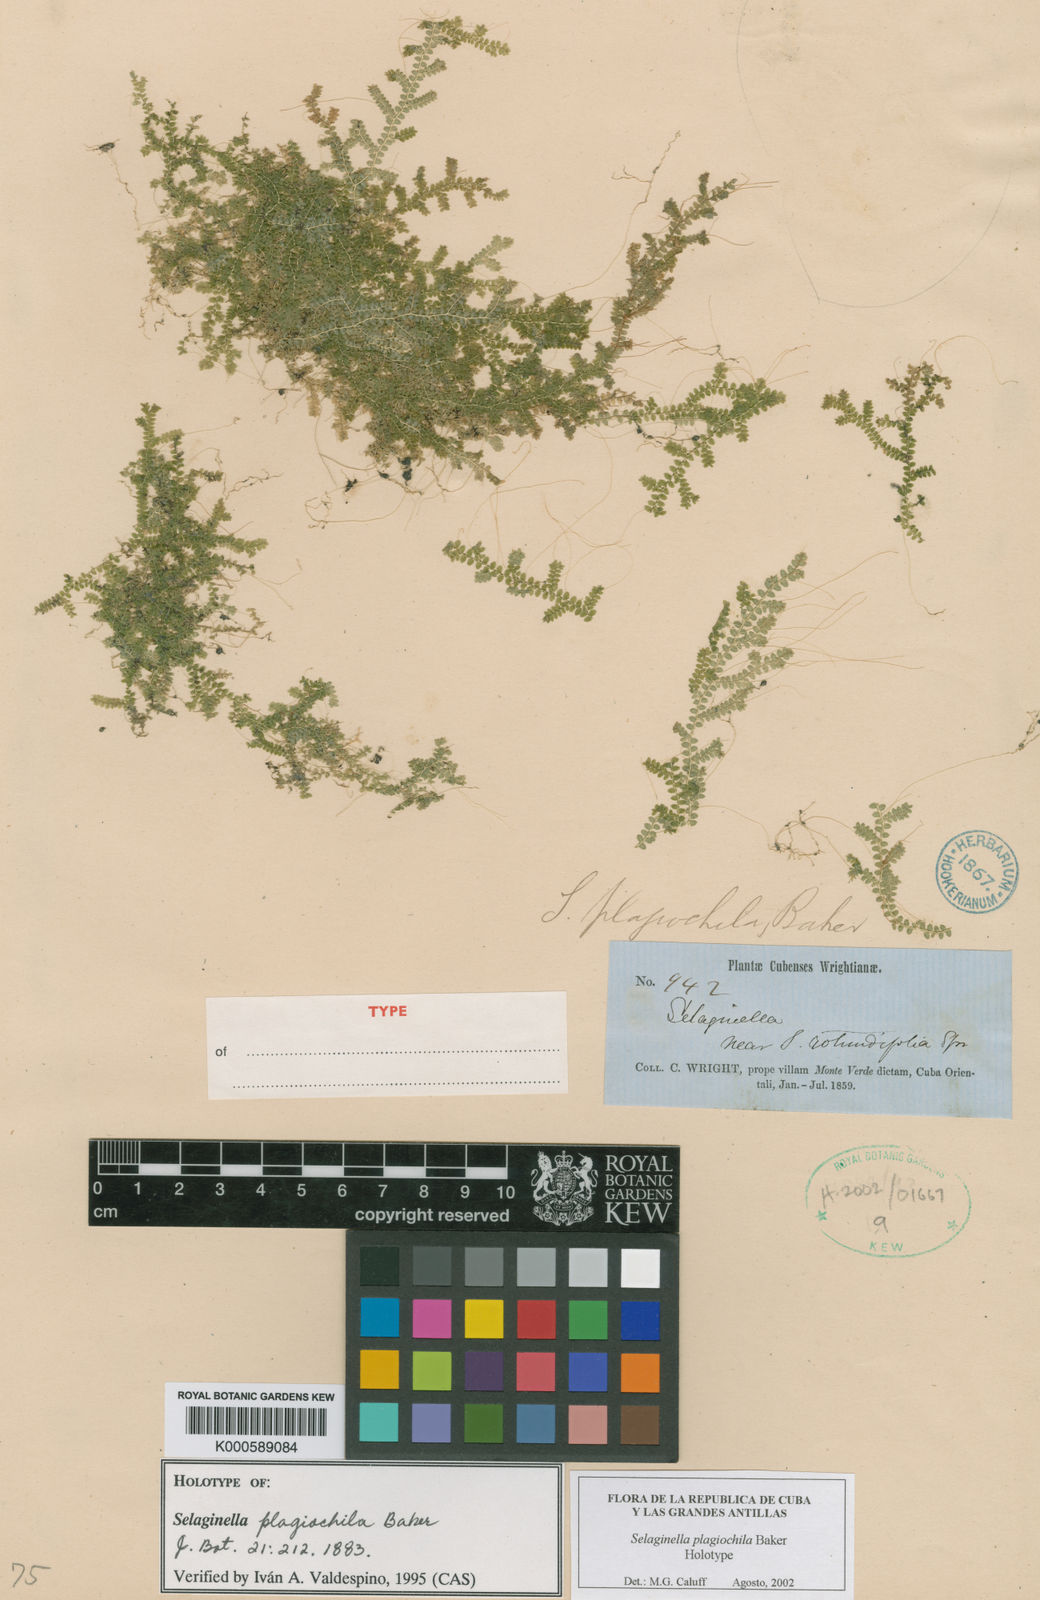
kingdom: Plantae
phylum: Tracheophyta
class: Lycopodiopsida
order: Selaginellales
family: Selaginellaceae
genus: Selaginella
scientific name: Selaginella plagiochila
